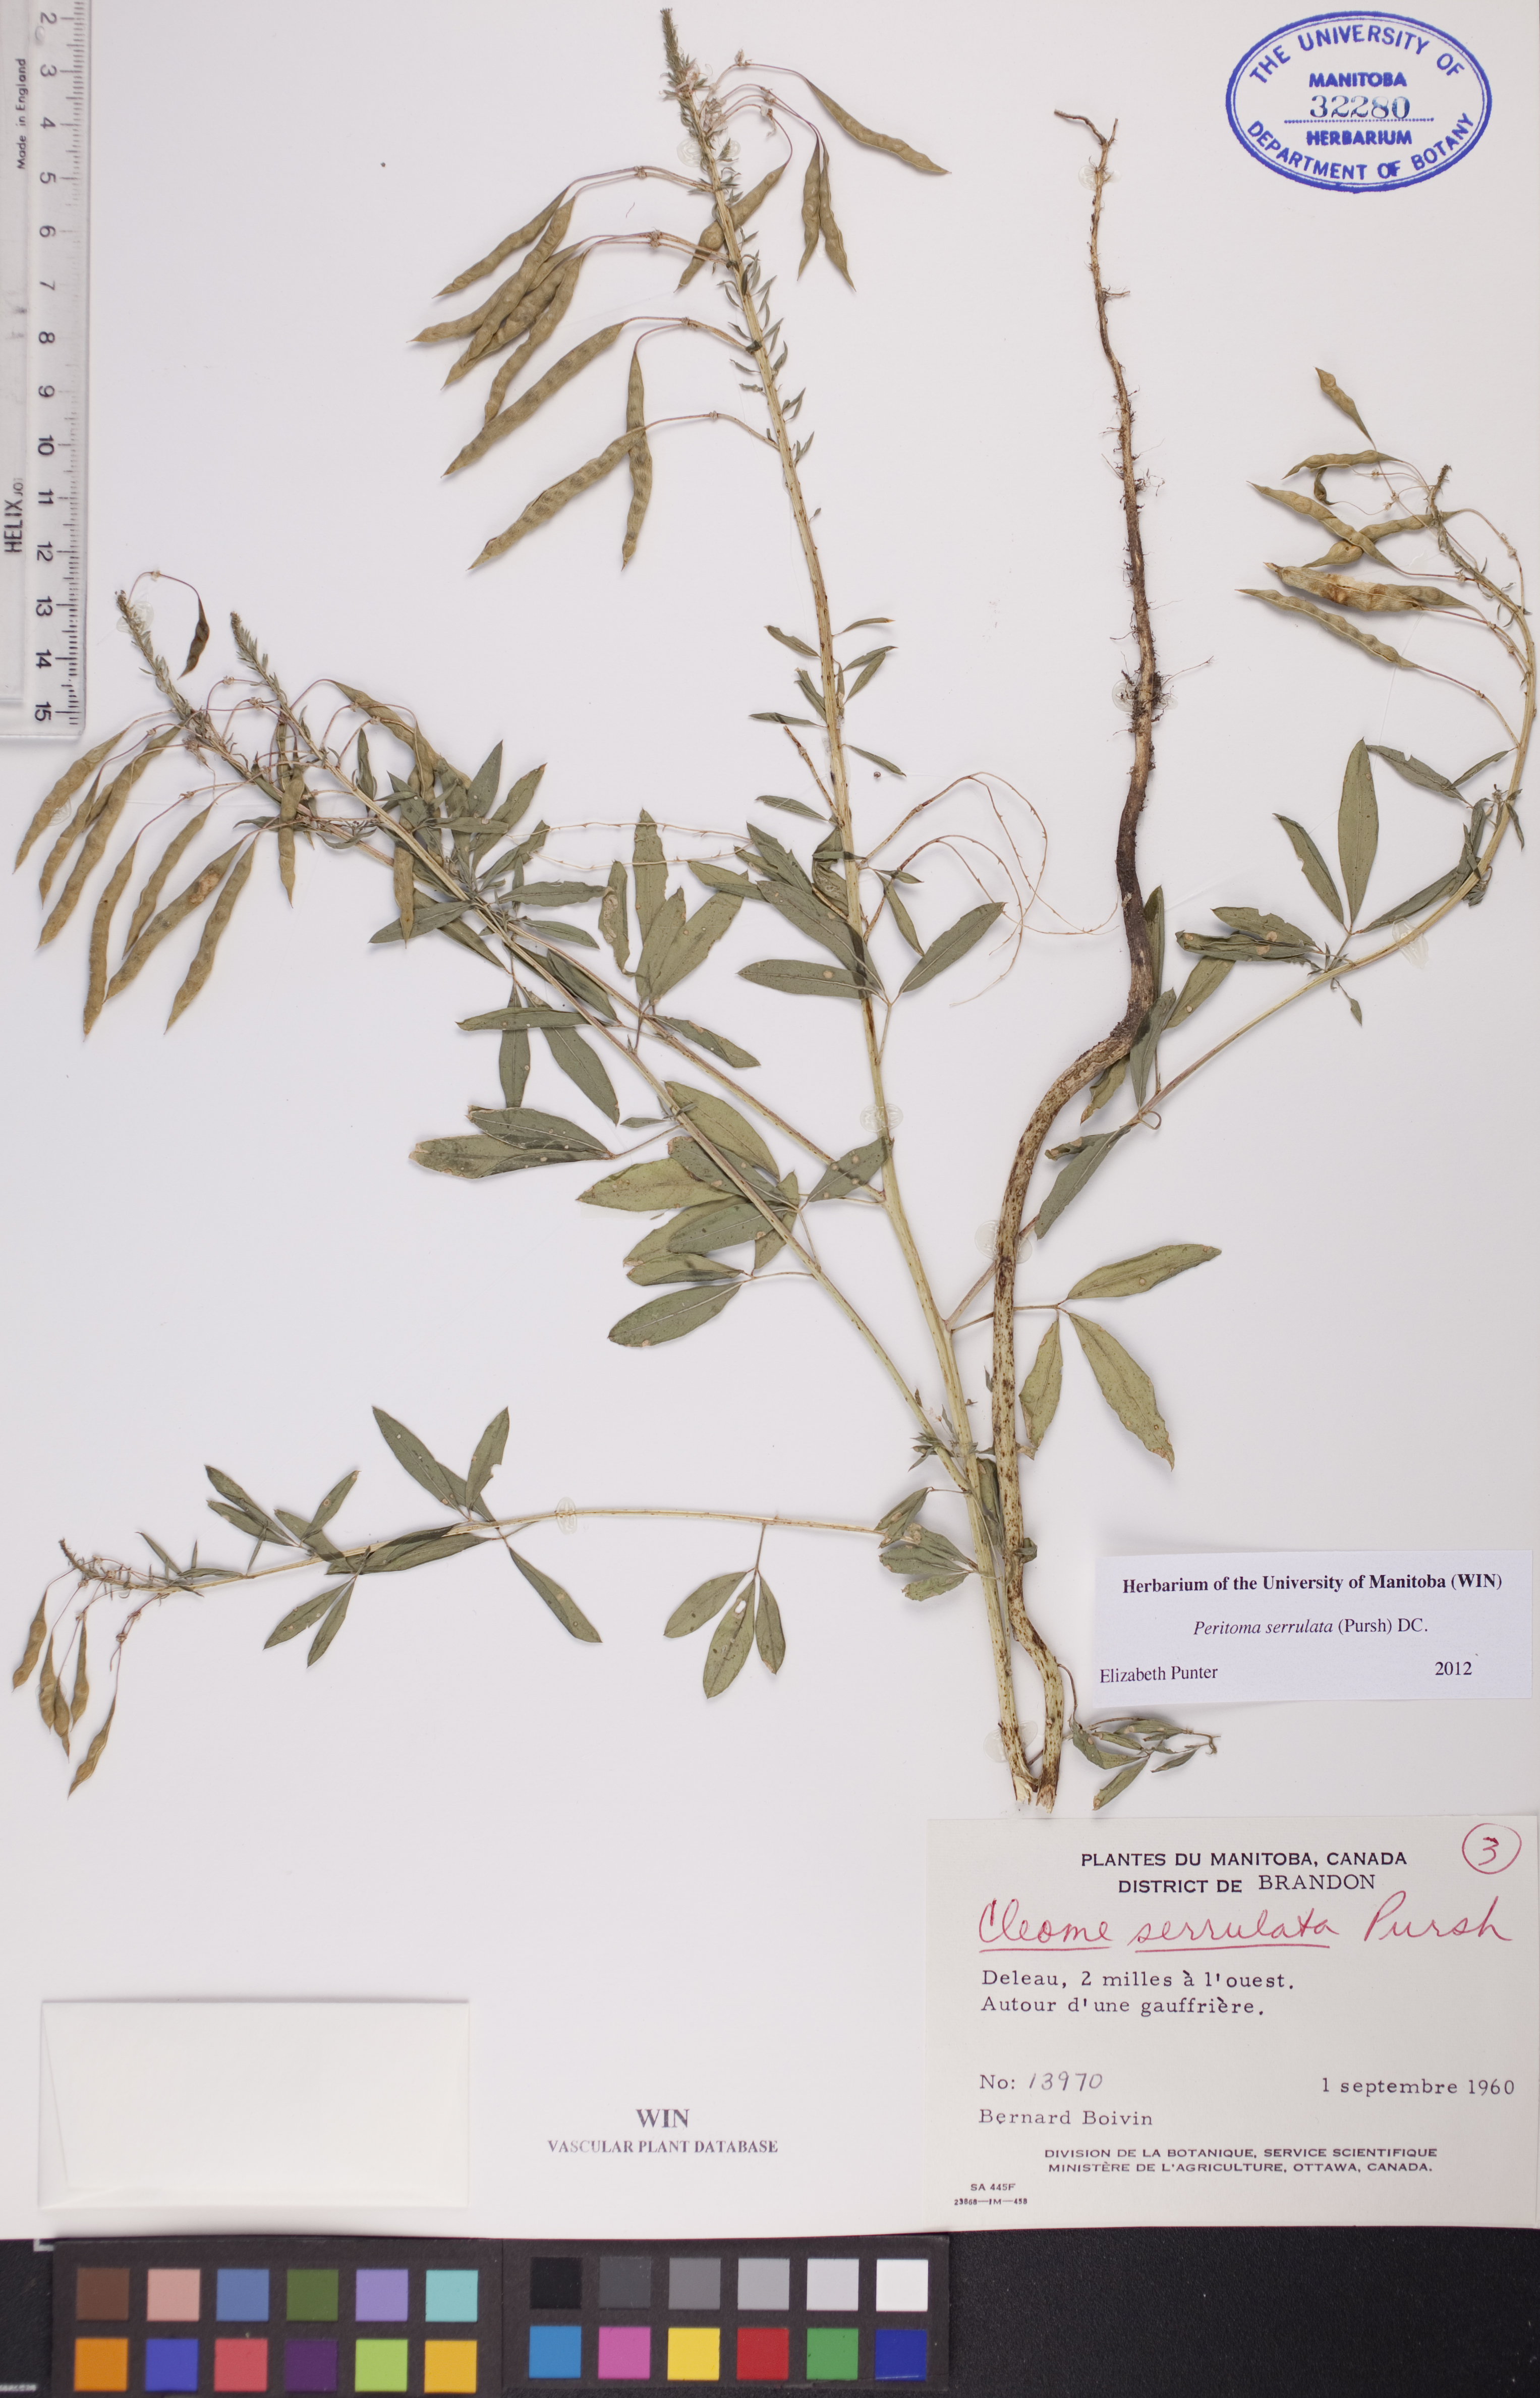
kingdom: Plantae
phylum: Tracheophyta
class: Magnoliopsida
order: Brassicales
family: Cleomaceae
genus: Cleomella
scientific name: Cleomella serrulata
